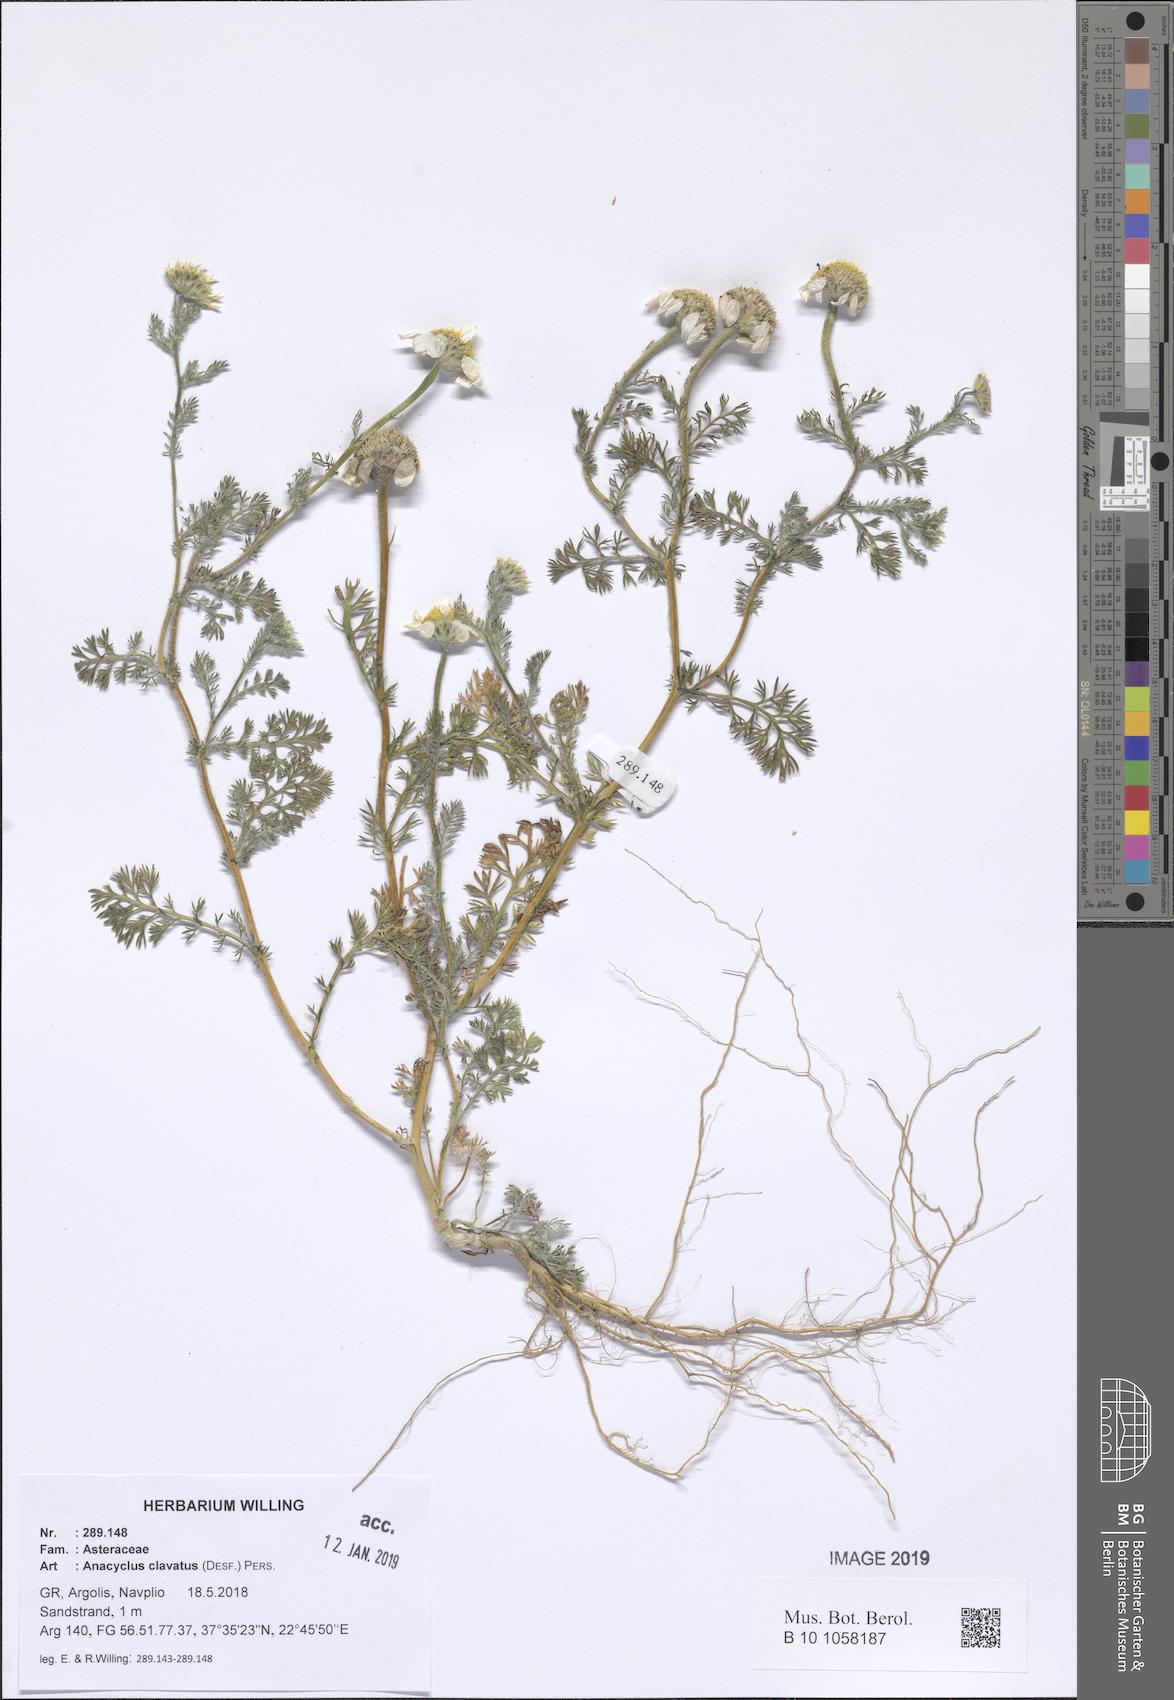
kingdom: Plantae
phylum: Tracheophyta
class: Magnoliopsida
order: Asterales
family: Asteraceae
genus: Anacyclus
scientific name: Anacyclus clavatus
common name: Whitebuttons
